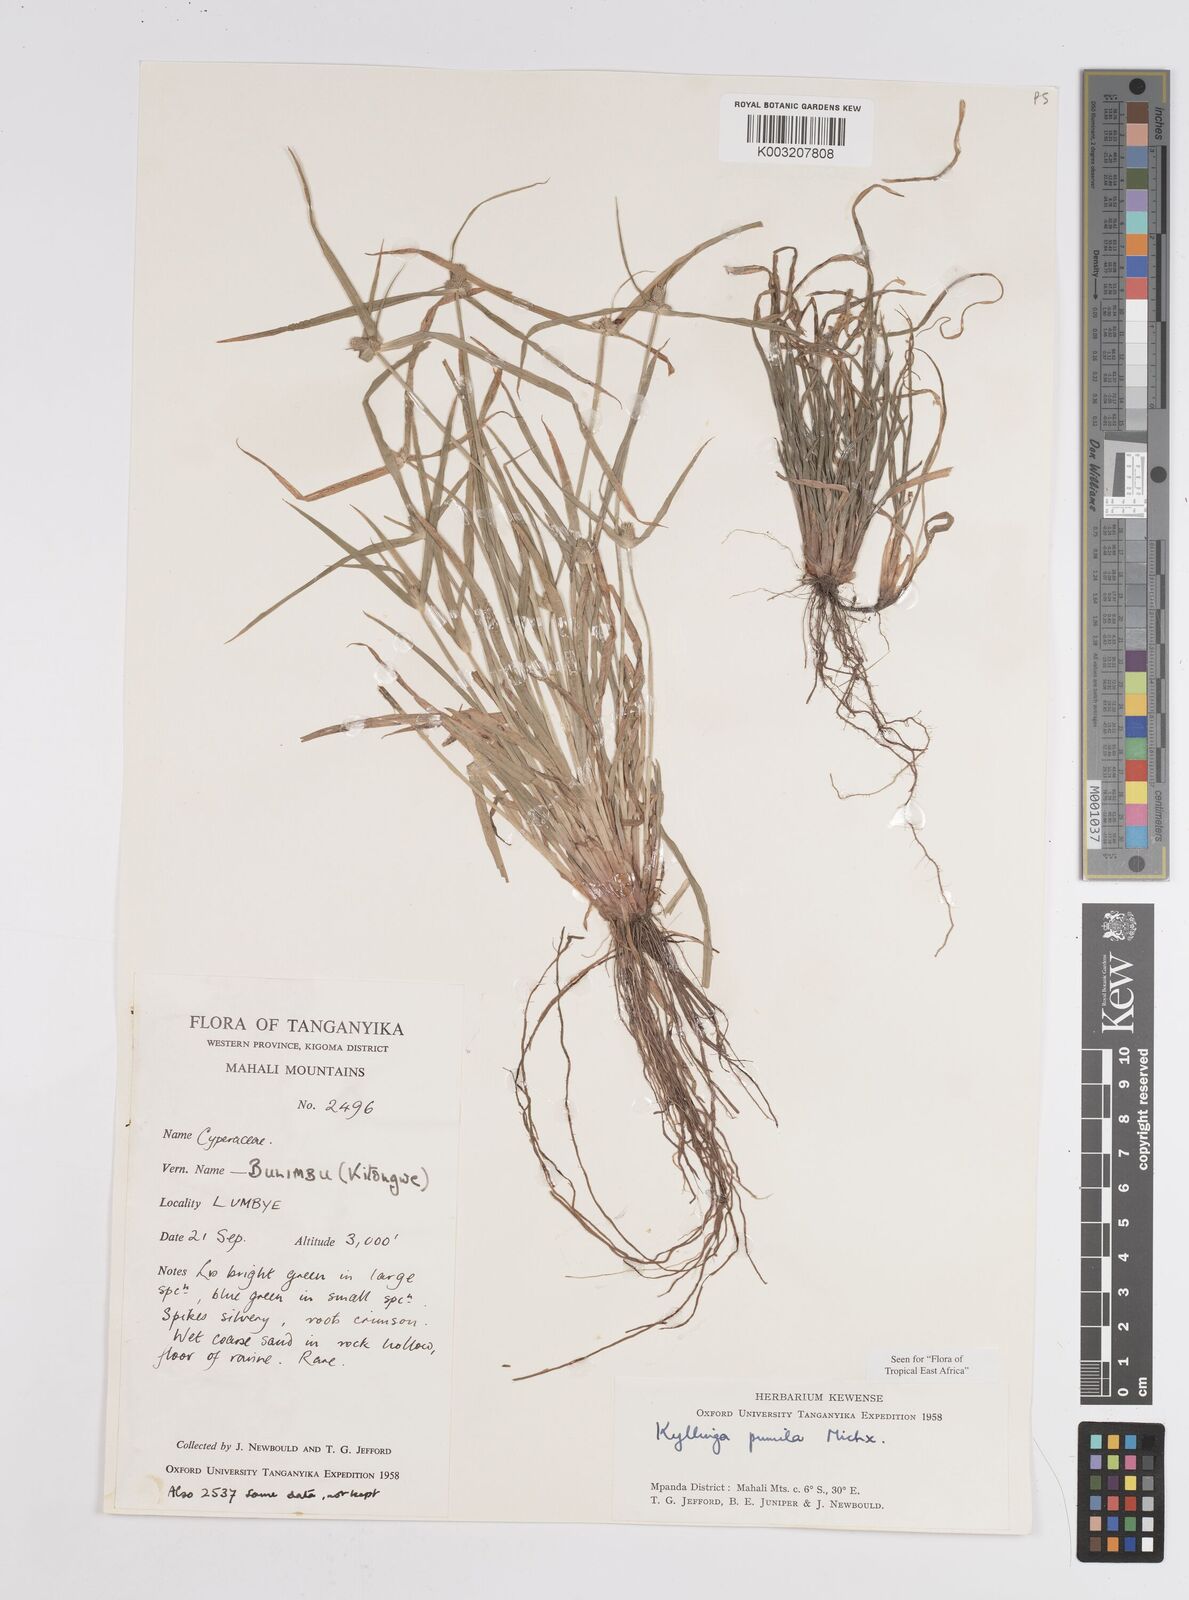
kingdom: Plantae
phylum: Tracheophyta
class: Liliopsida
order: Poales
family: Cyperaceae
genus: Cyperus
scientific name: Cyperus hortensis
